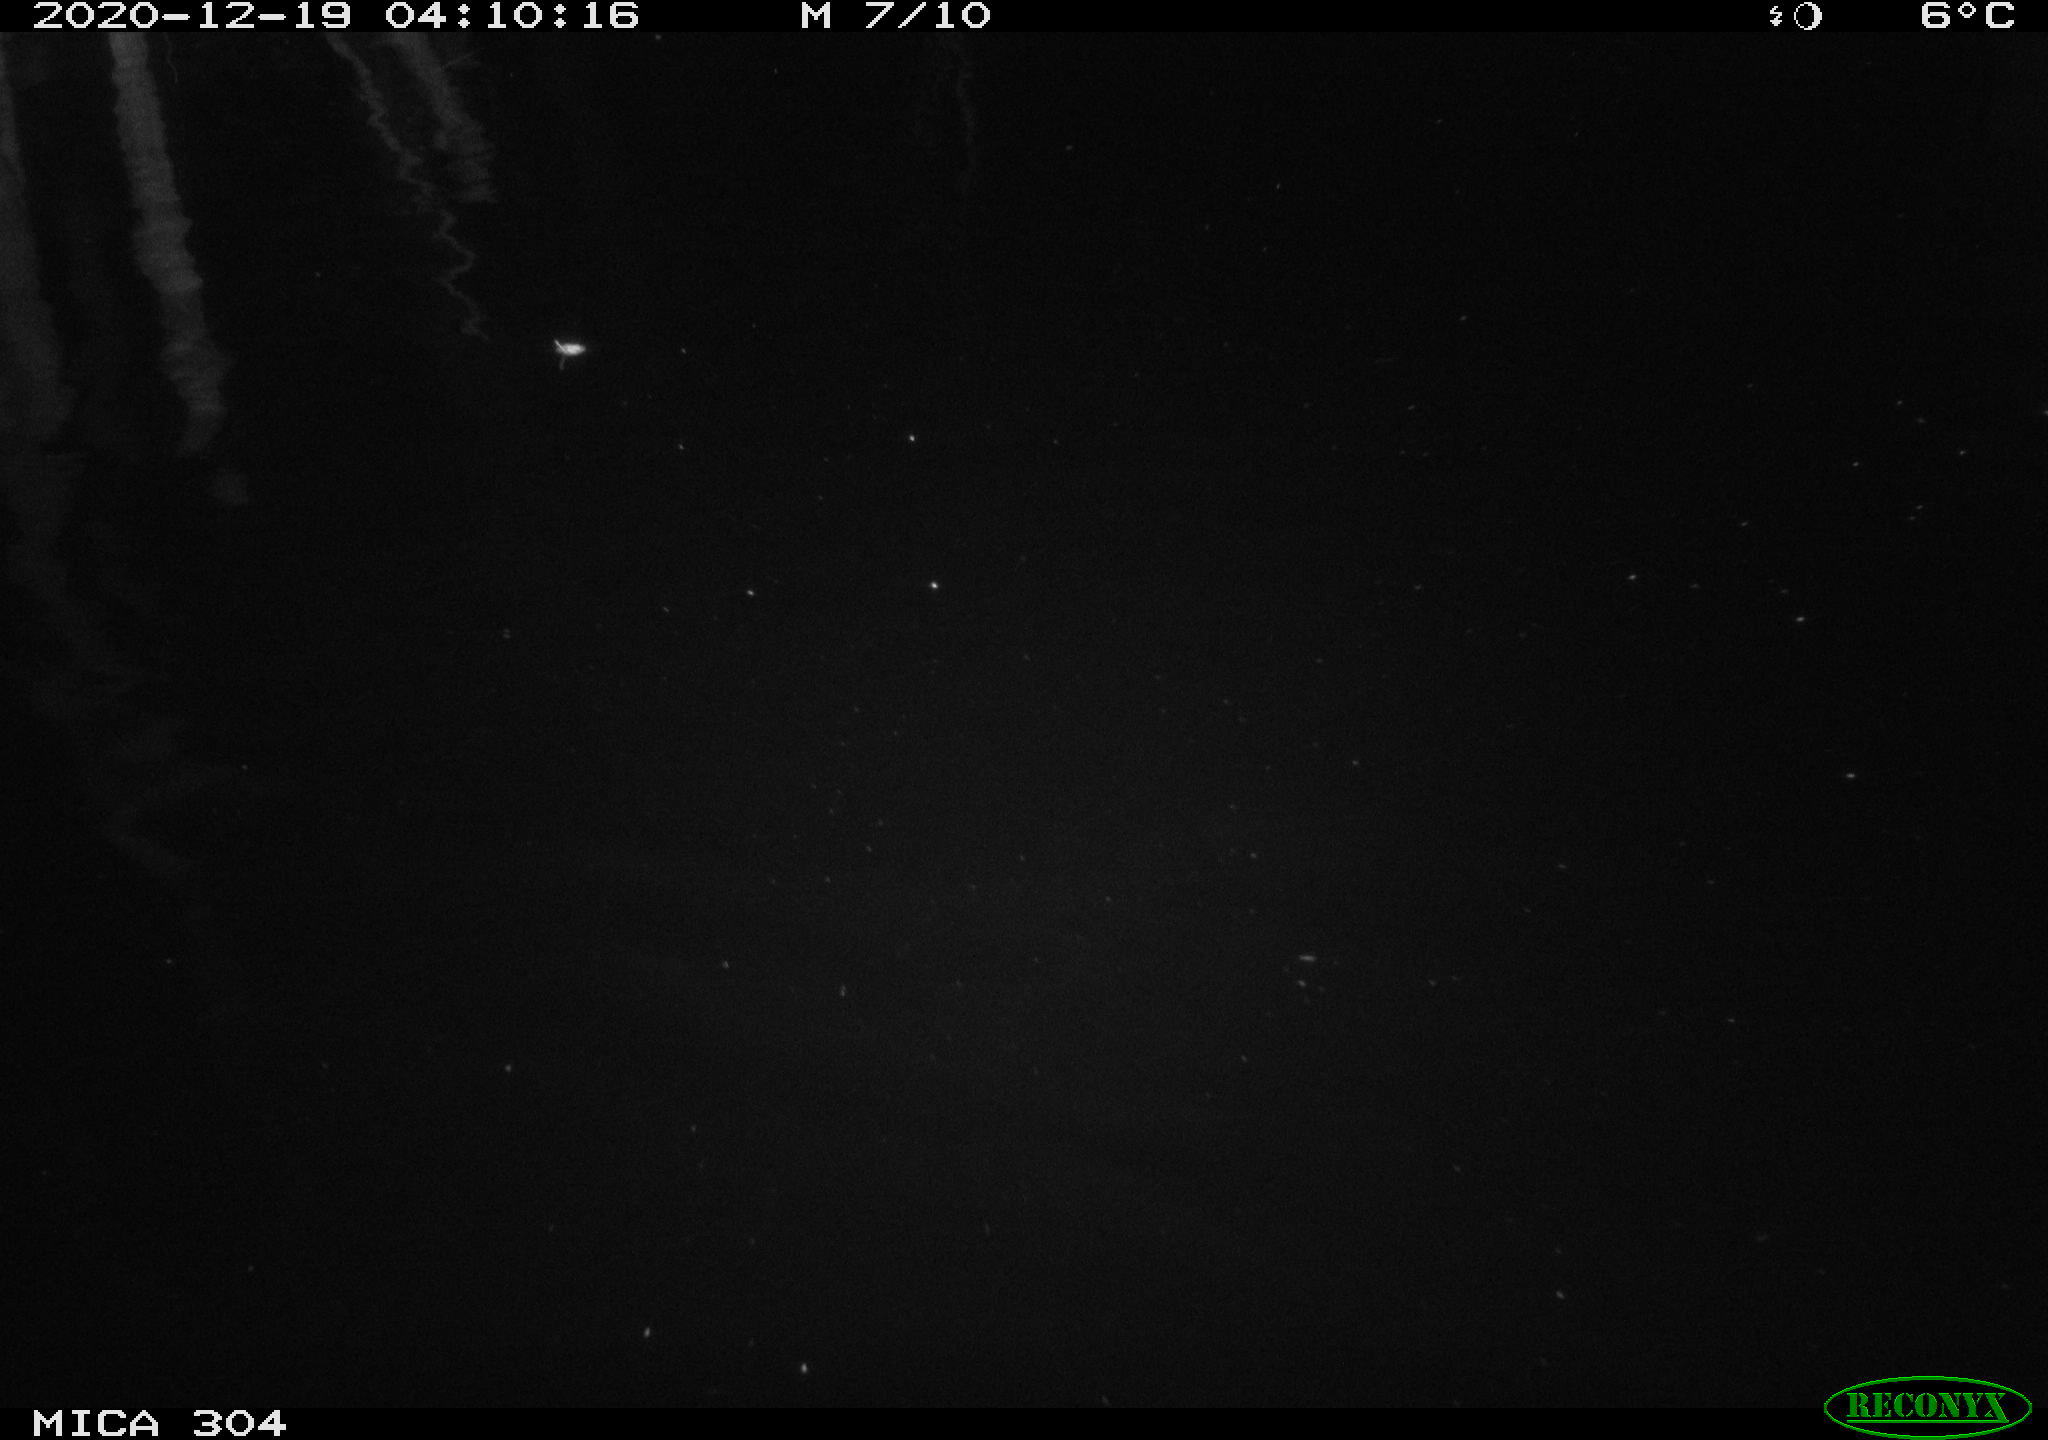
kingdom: Animalia
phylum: Chordata
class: Mammalia
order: Rodentia
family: Muridae
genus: Rattus
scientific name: Rattus norvegicus
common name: Brown rat
